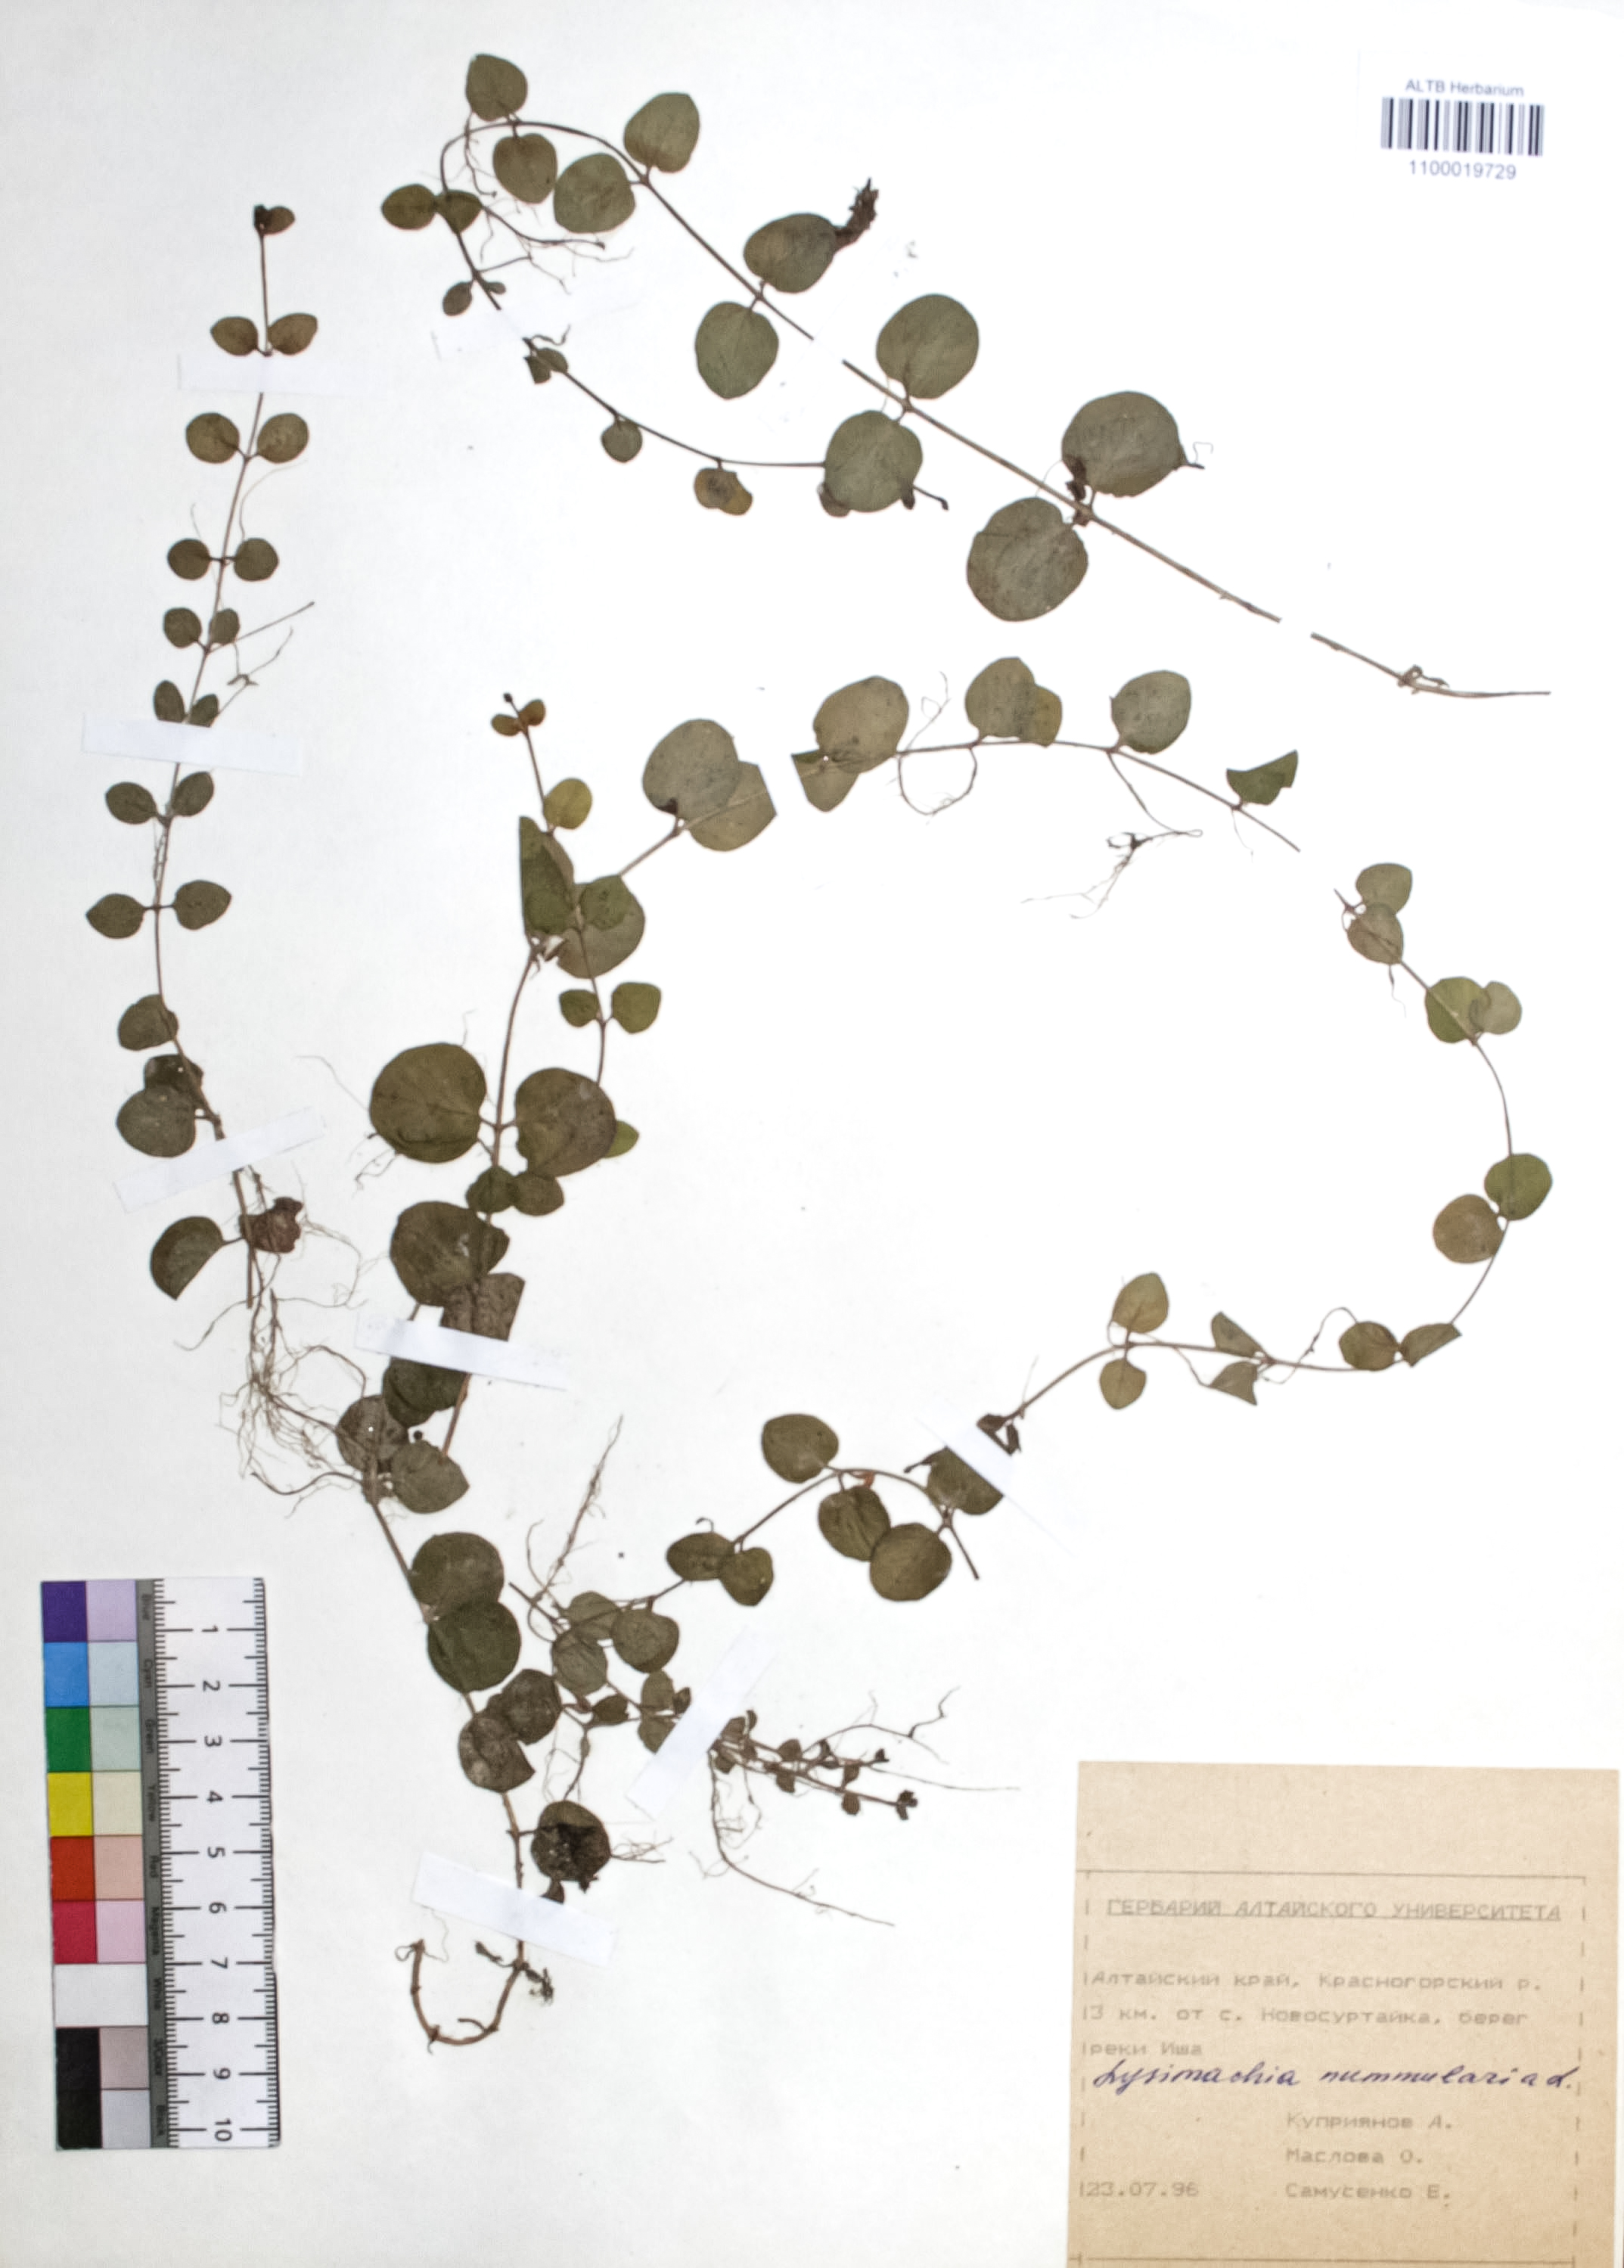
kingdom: Plantae
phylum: Tracheophyta
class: Magnoliopsida
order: Ericales
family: Primulaceae
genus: Lysimachia
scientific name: Lysimachia nummularia
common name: Moneywort
